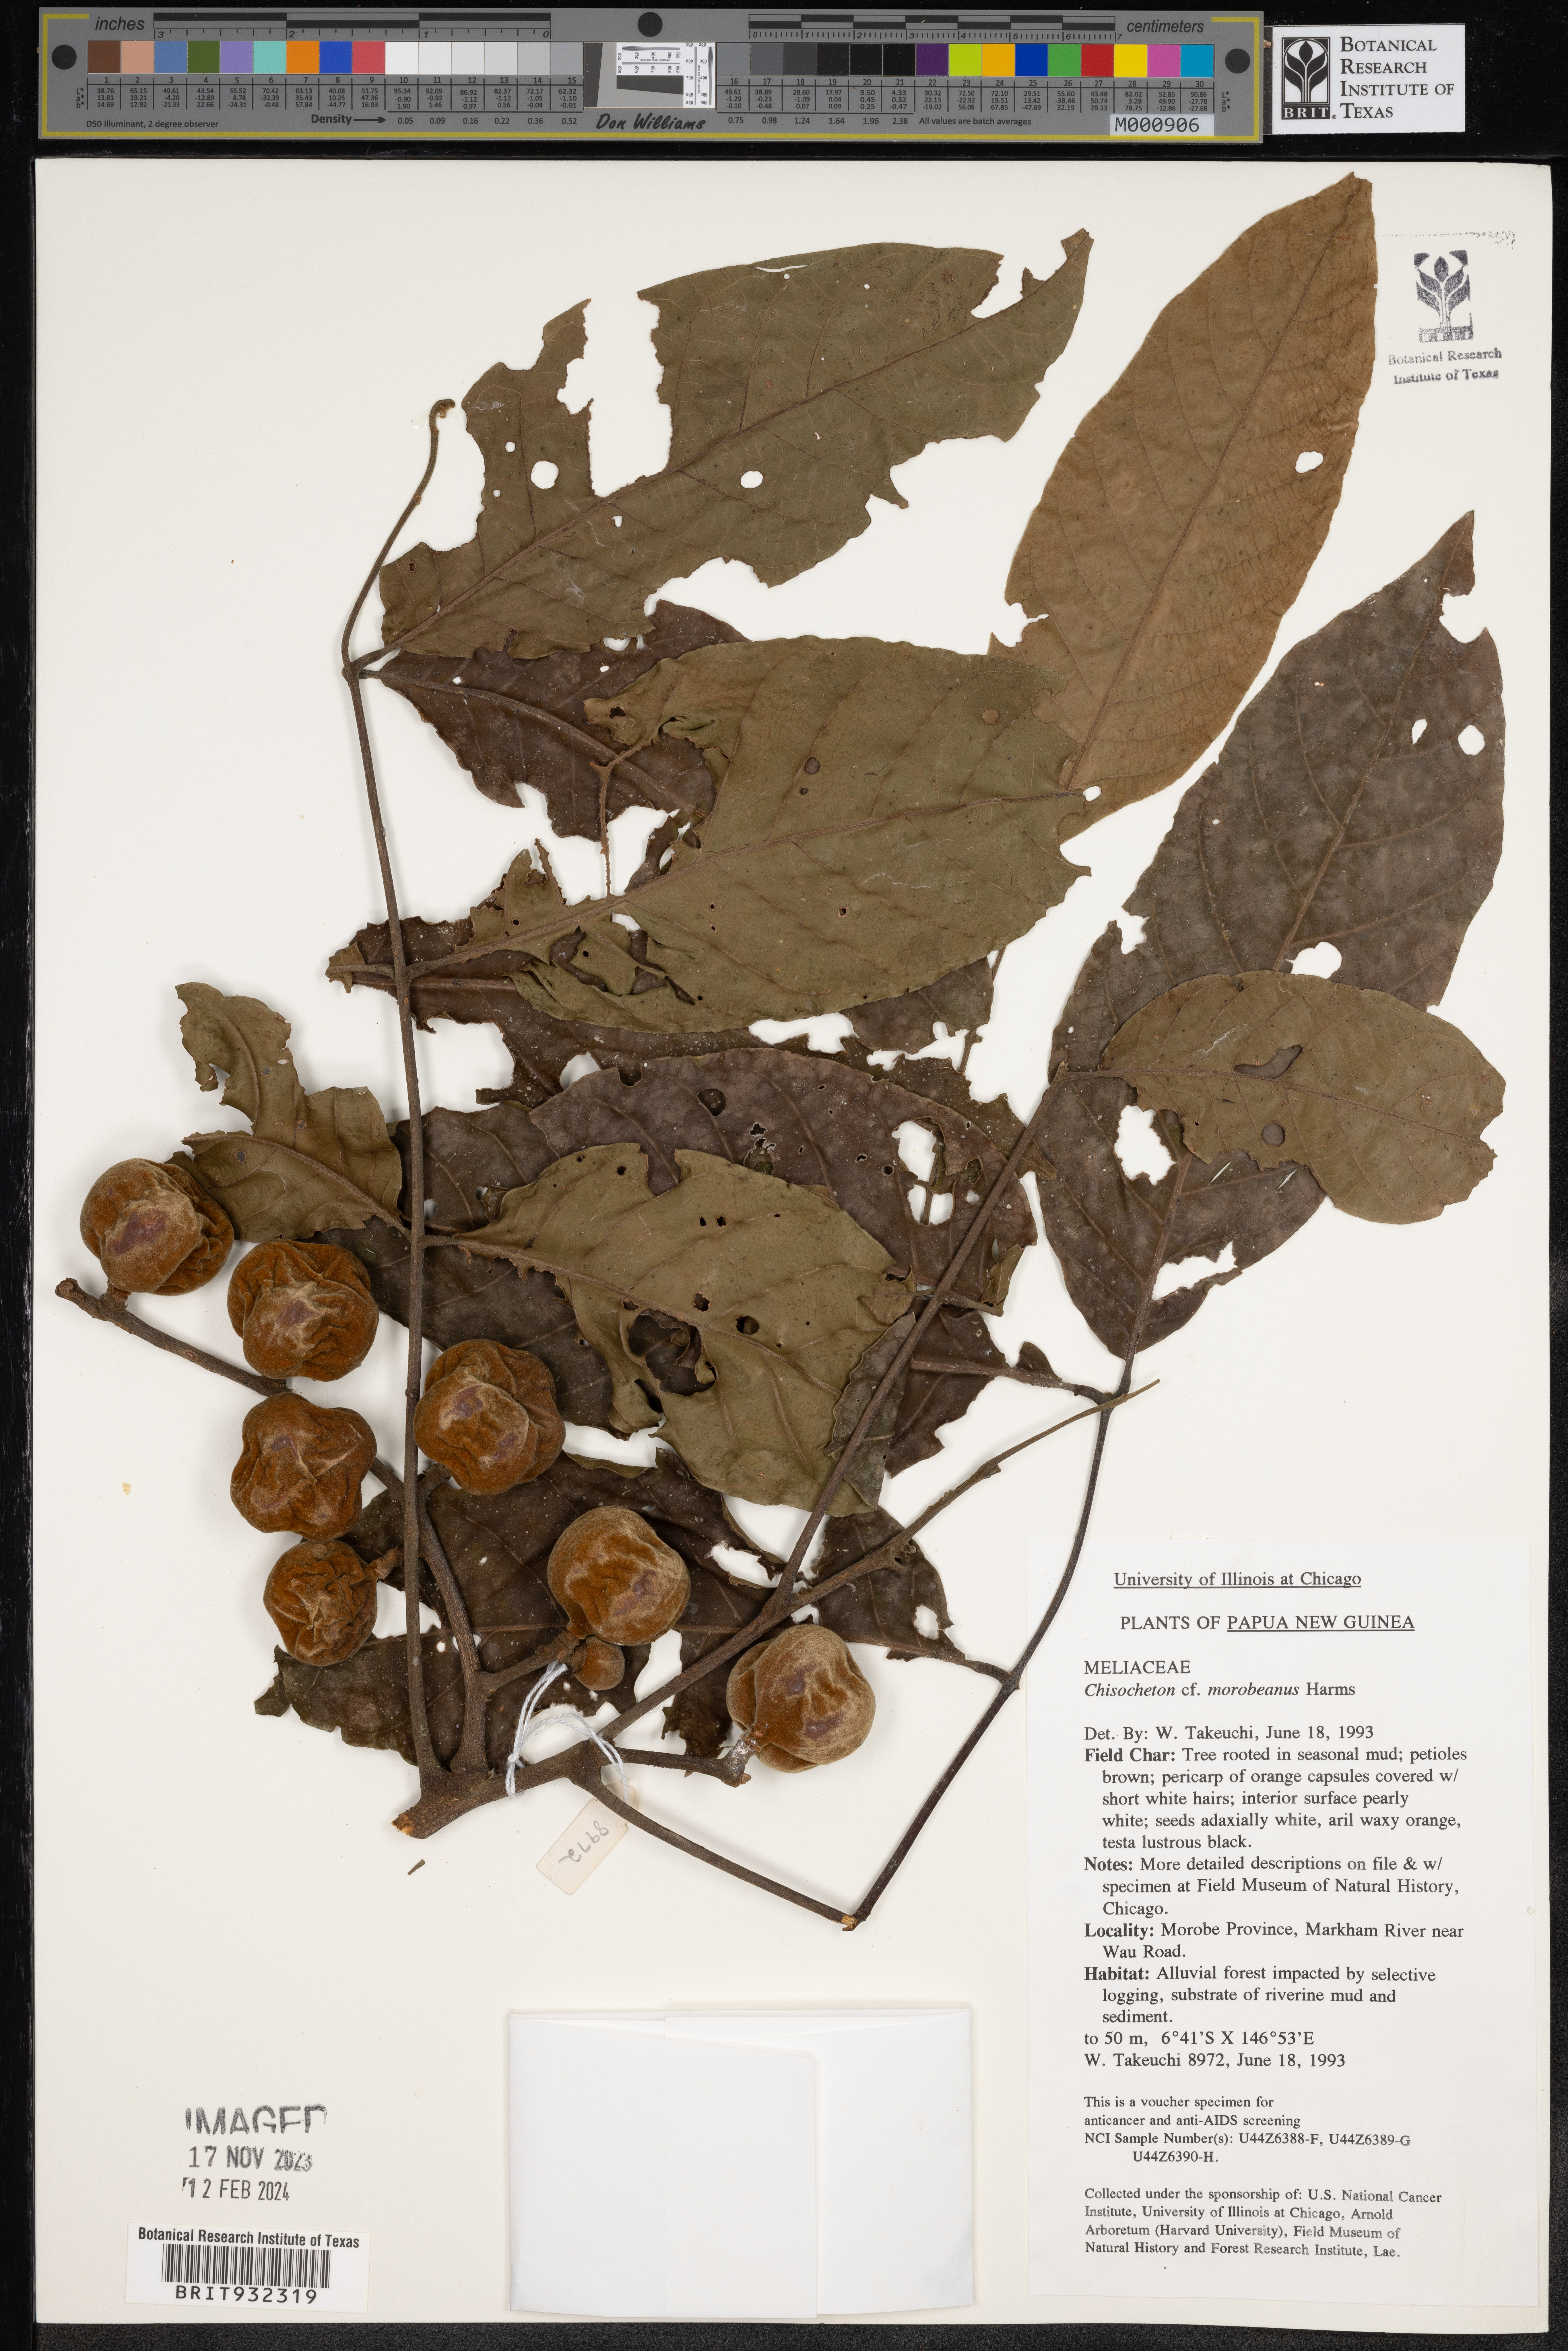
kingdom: Plantae
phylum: Tracheophyta
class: Magnoliopsida
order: Sapindales
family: Meliaceae
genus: Chisocheton
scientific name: Chisocheton
